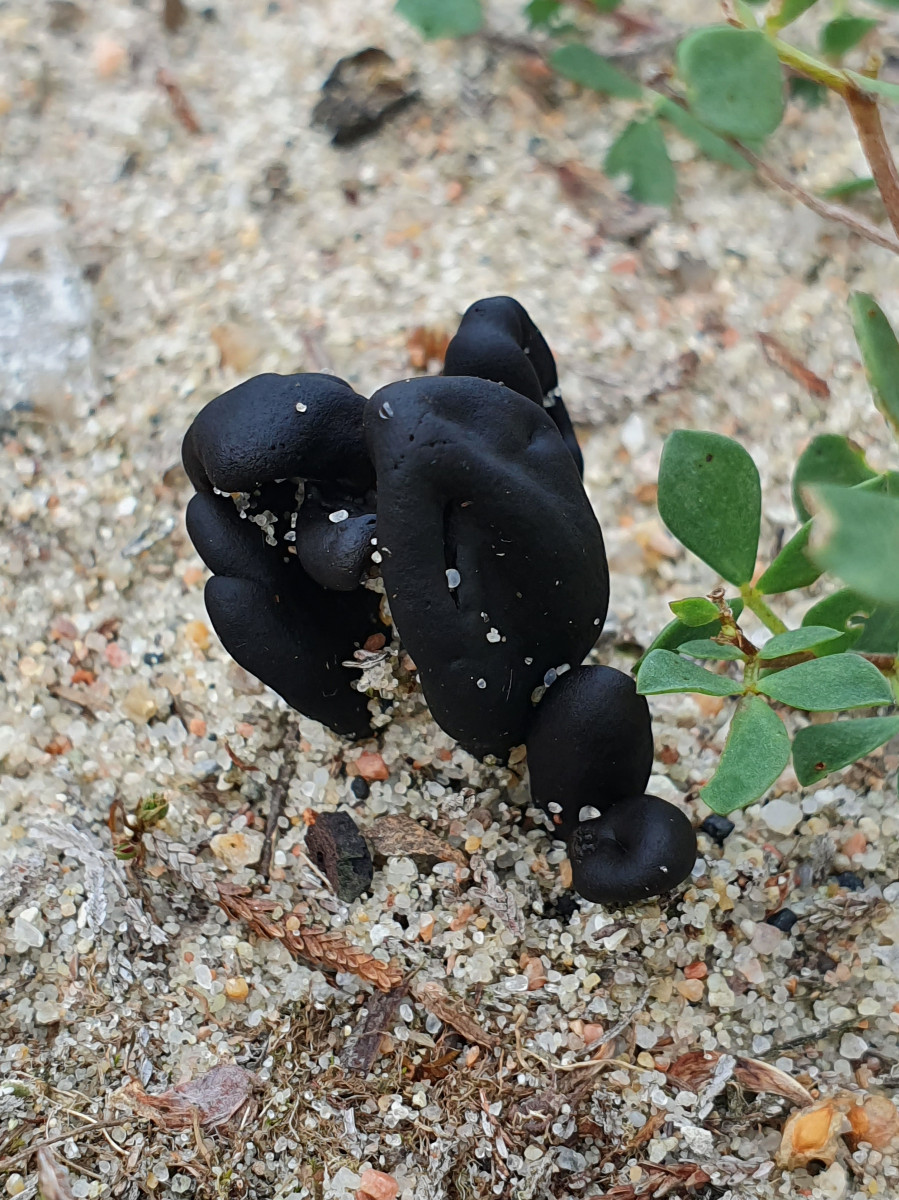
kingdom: Fungi
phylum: Ascomycota
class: Geoglossomycetes
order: Geoglossales
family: Geoglossaceae
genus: Sabuloglossum
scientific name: Sabuloglossum arenarium
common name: klit-jordtunge
